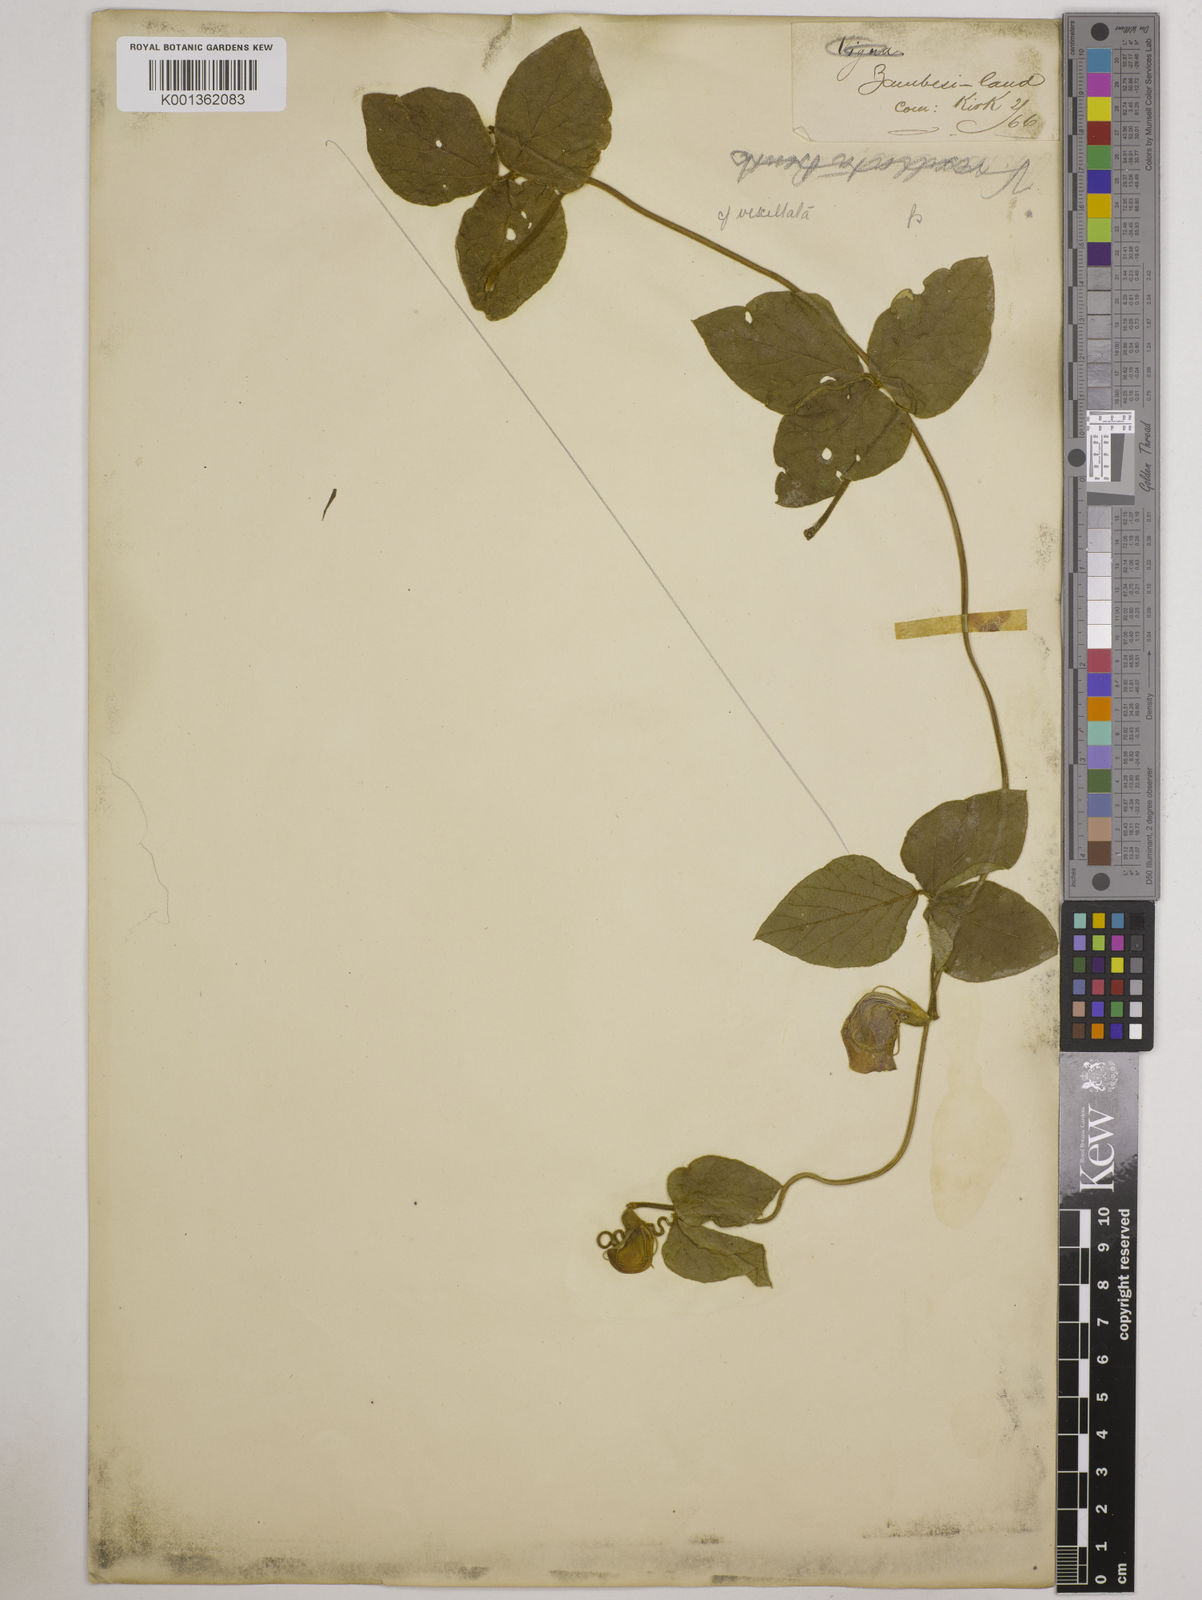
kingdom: Plantae
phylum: Tracheophyta
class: Magnoliopsida
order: Fabales
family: Fabaceae
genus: Vigna
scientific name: Vigna vexillata
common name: Zombi pea
